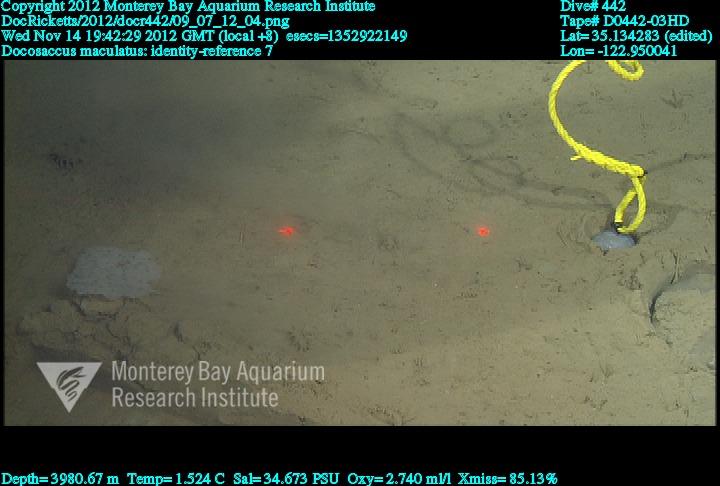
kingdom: Animalia
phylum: Porifera
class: Hexactinellida
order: Lyssacinosida
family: Euplectellidae
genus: Docosaccus
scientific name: Docosaccus maculatus
